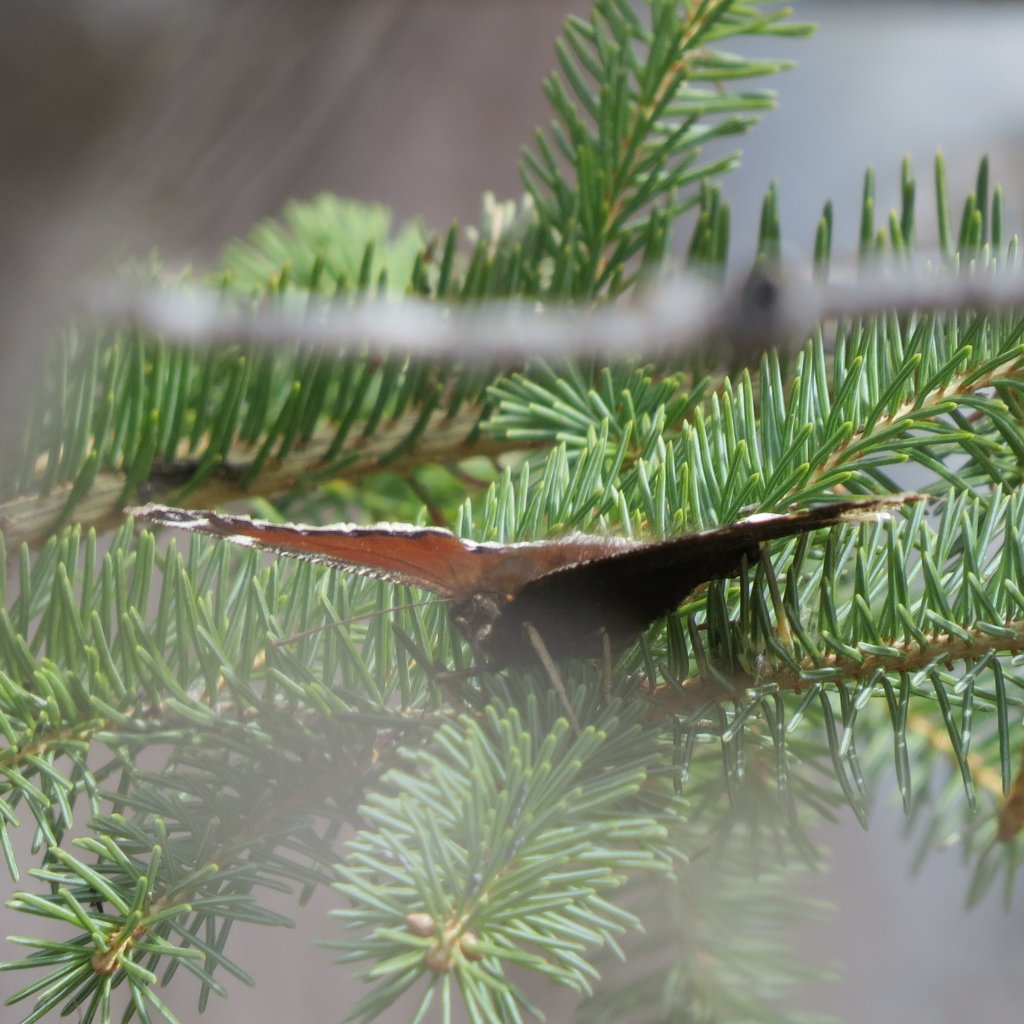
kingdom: Animalia
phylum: Arthropoda
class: Insecta
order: Lepidoptera
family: Nymphalidae
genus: Nymphalis
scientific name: Nymphalis antiopa
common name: Mourning Cloak
